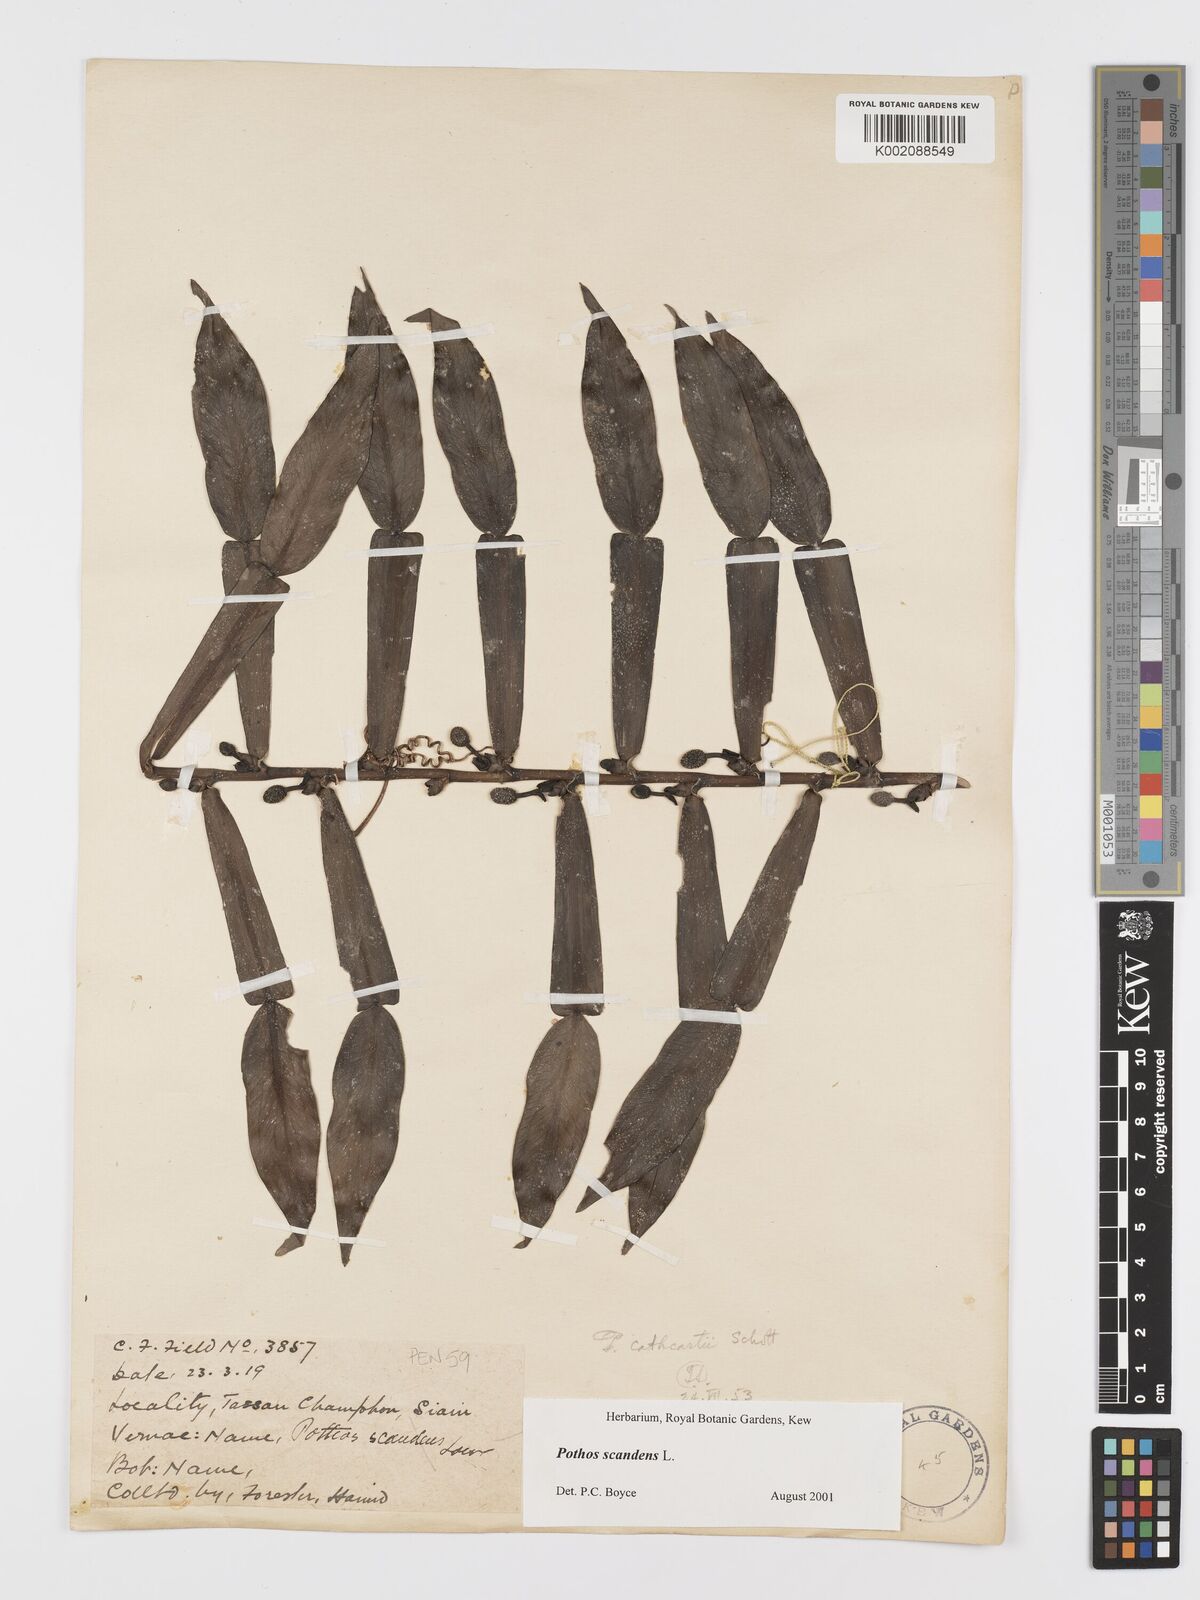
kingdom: Plantae
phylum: Tracheophyta
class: Liliopsida
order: Alismatales
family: Araceae
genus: Pothos
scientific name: Pothos scandens
